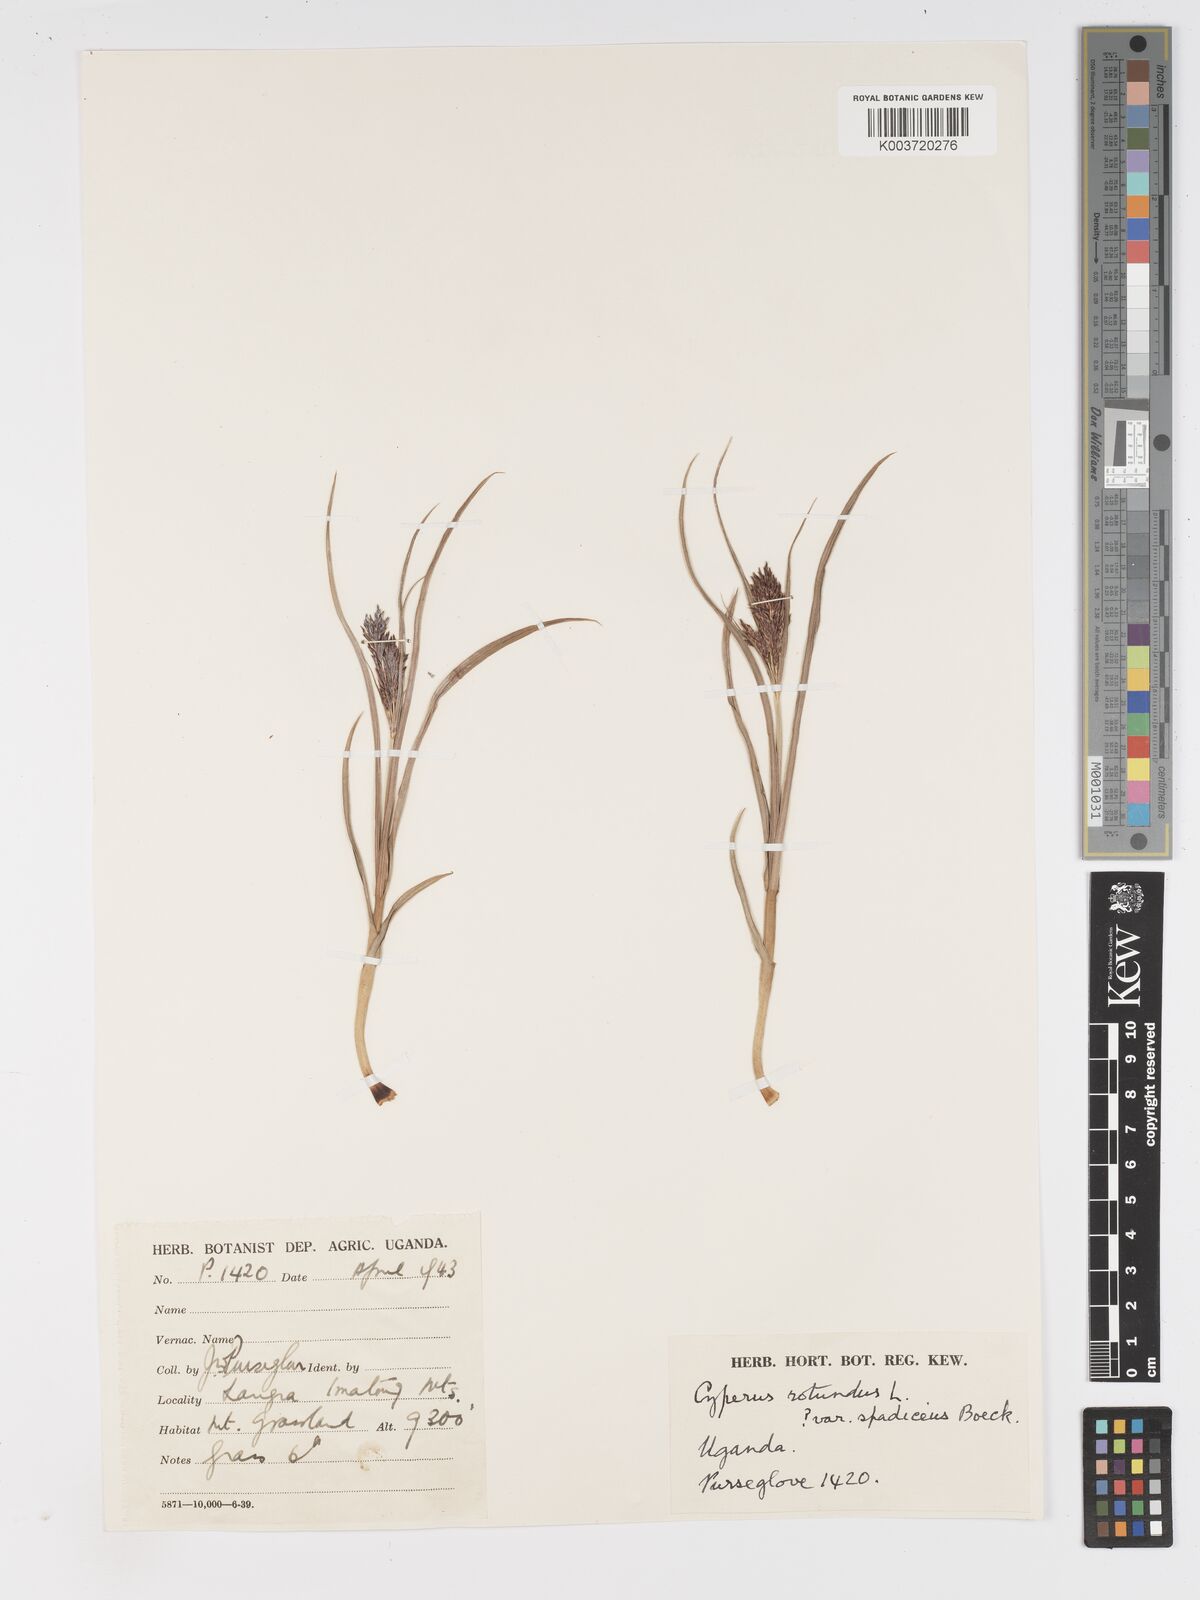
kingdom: Plantae
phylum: Tracheophyta
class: Liliopsida
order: Poales
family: Cyperaceae
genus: Cyperus
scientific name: Cyperus
